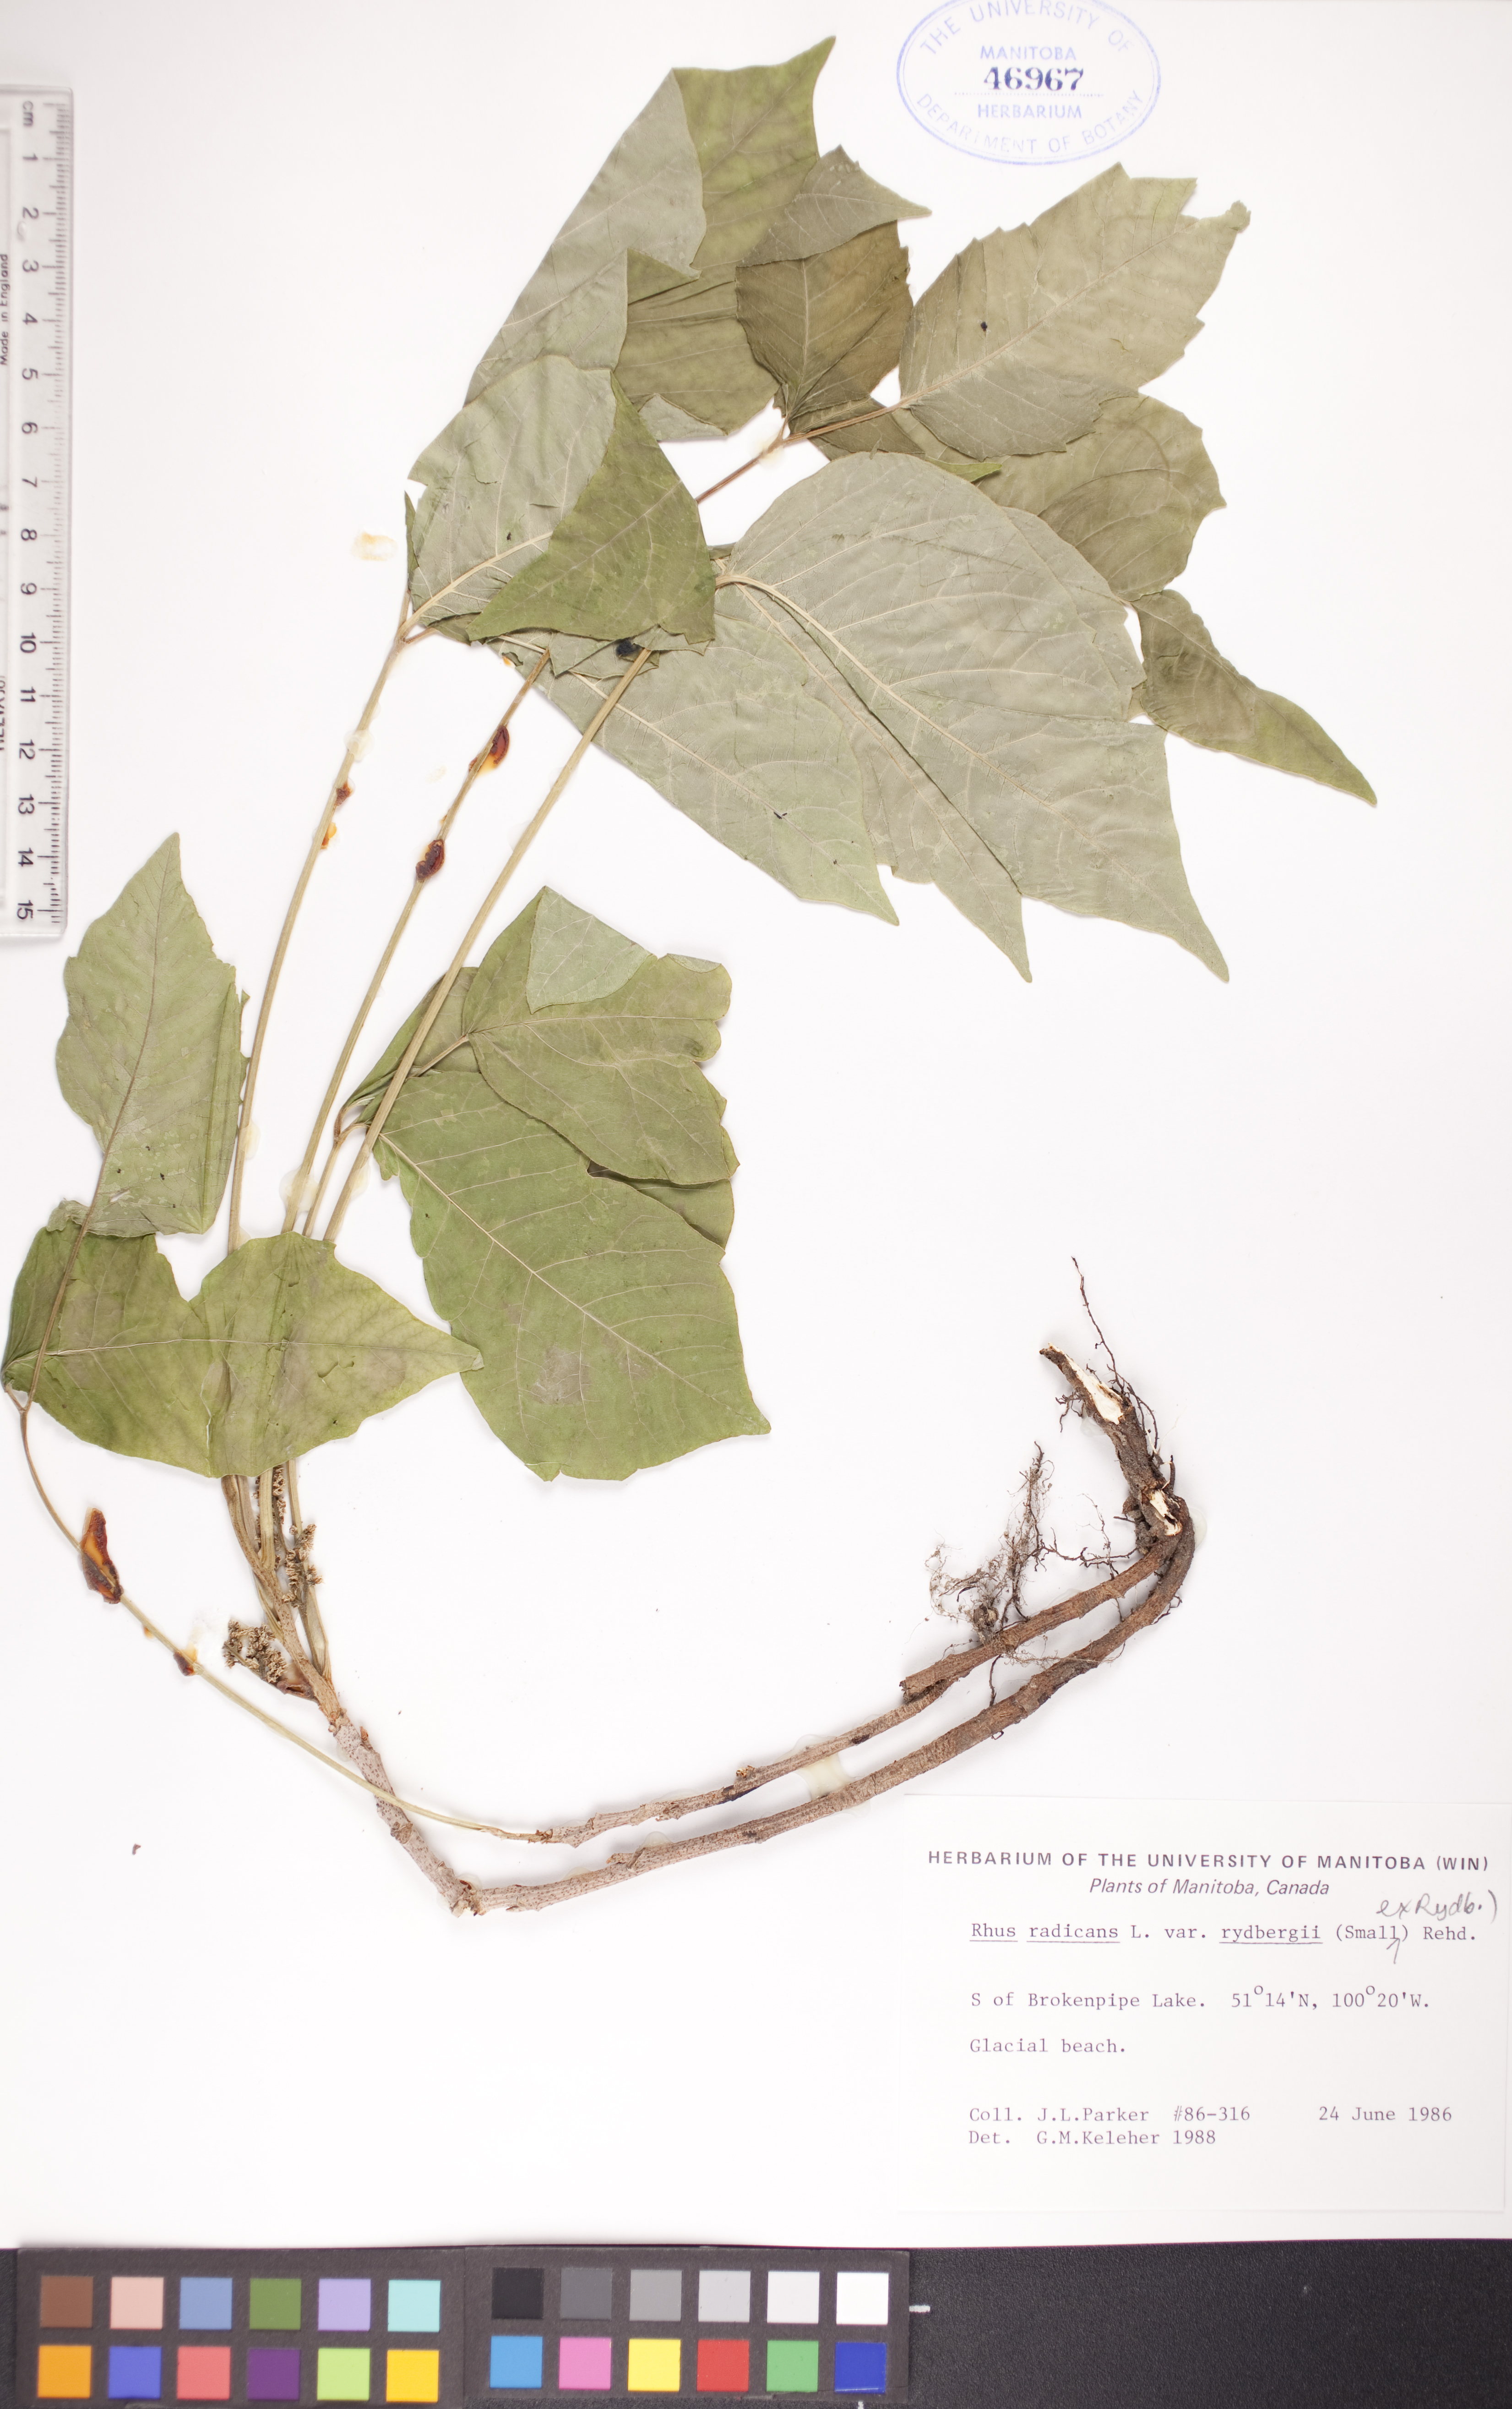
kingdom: Plantae
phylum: Tracheophyta
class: Magnoliopsida
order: Sapindales
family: Anacardiaceae
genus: Toxicodendron
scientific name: Toxicodendron rydbergii
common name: Rydberg's poison-ivy
